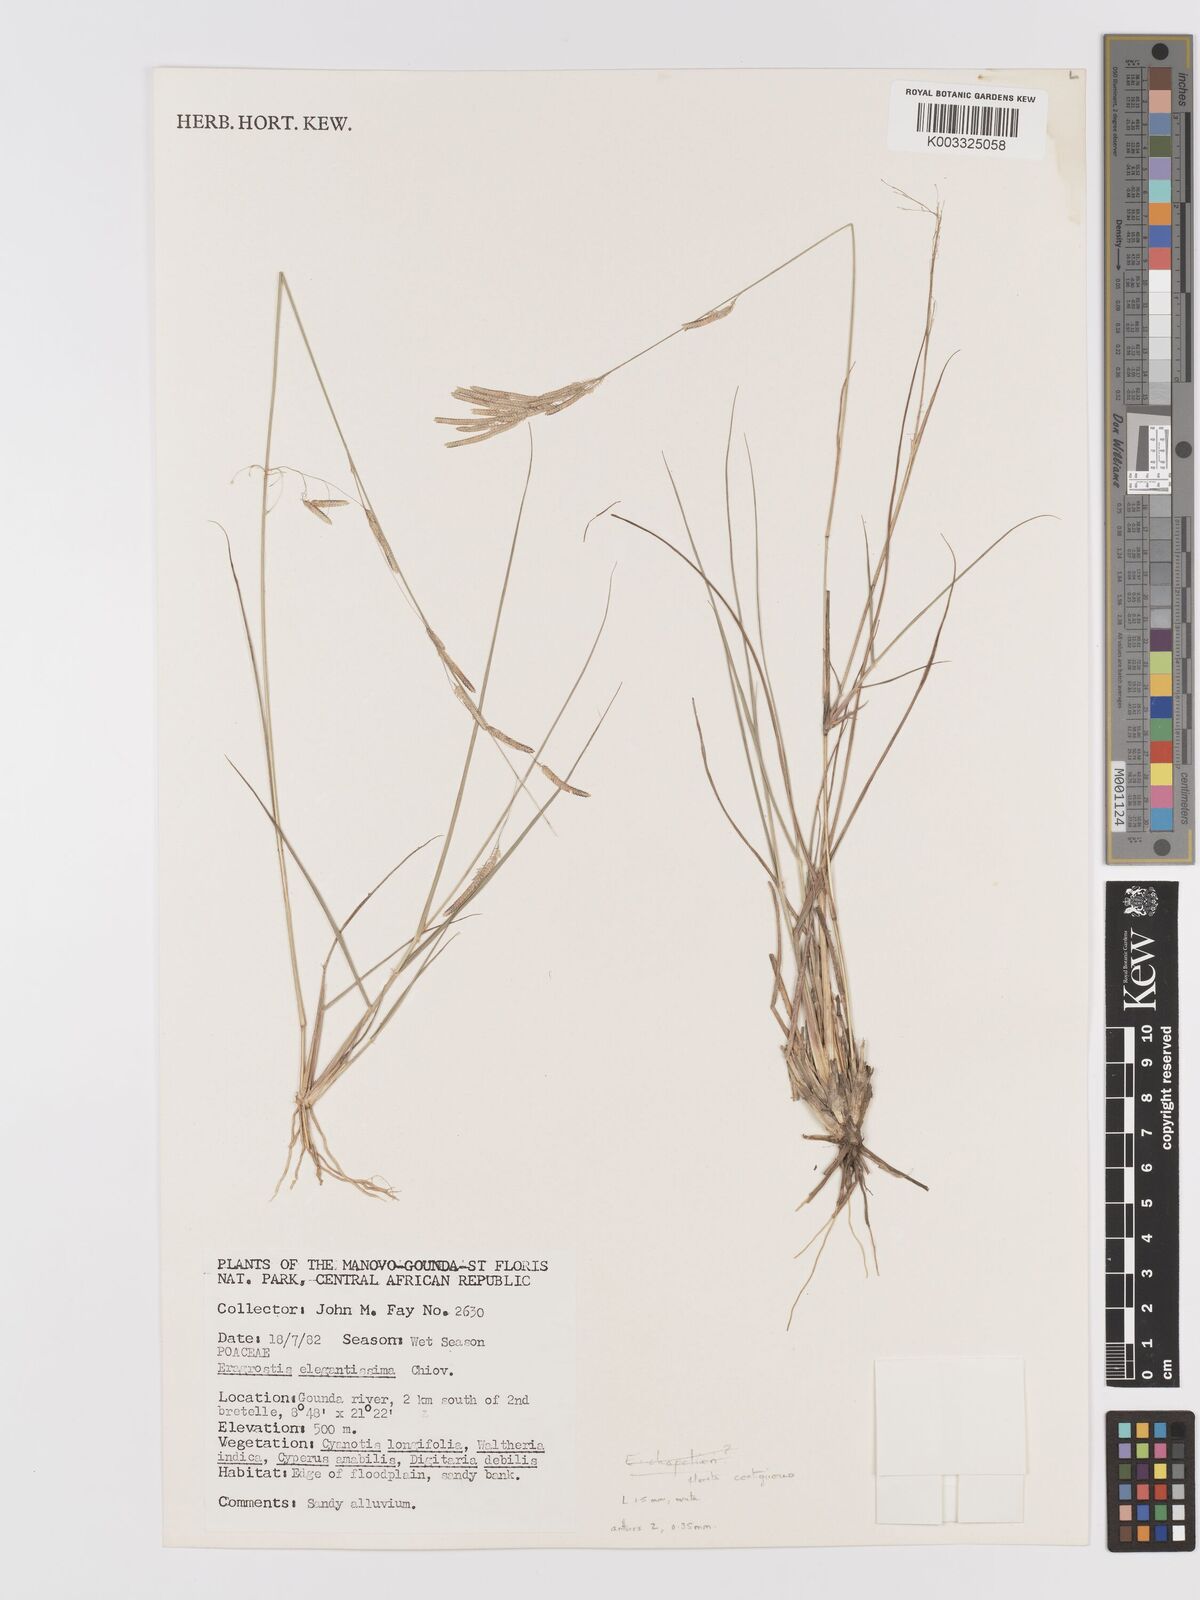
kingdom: Plantae
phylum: Tracheophyta
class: Liliopsida
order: Poales
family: Poaceae
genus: Eragrostis
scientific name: Eragrostis
